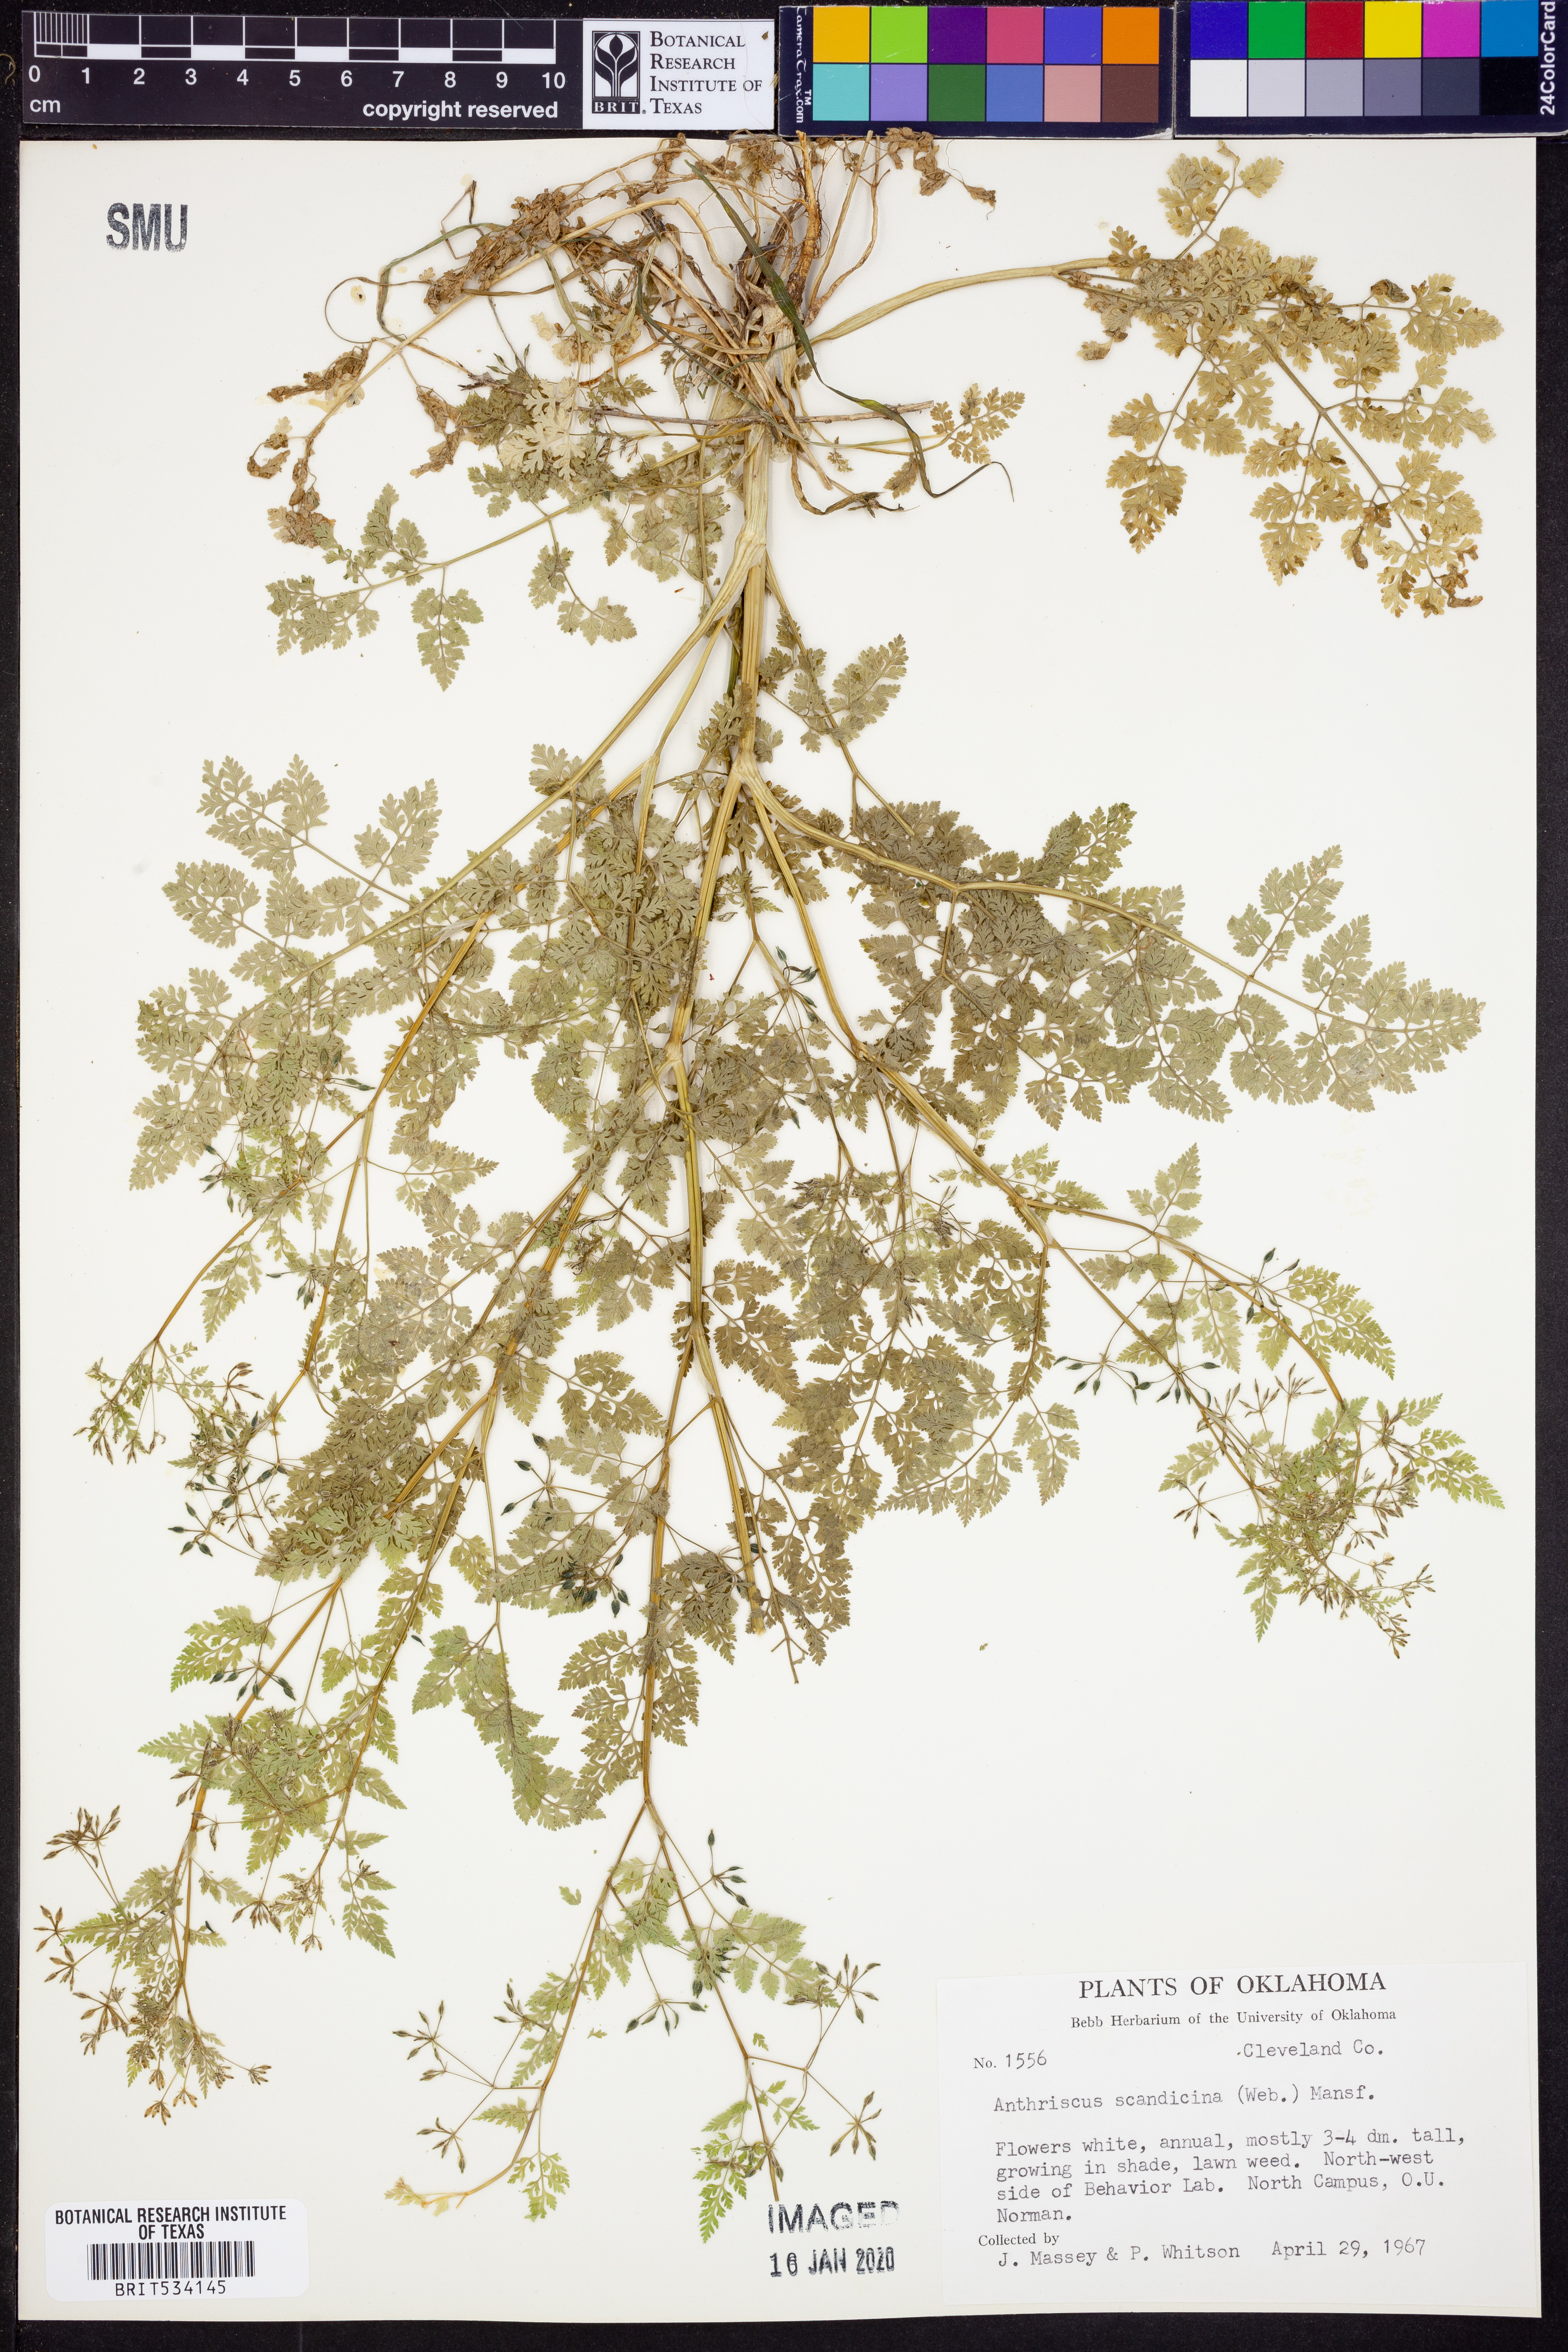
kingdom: Plantae
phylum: Tracheophyta
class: Magnoliopsida
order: Apiales
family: Apiaceae
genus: Anthriscus
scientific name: Anthriscus caucalis
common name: Bur chervil
